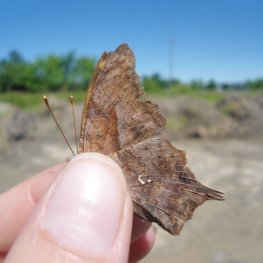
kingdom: Animalia
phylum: Arthropoda
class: Insecta
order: Lepidoptera
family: Nymphalidae
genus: Polygonia
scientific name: Polygonia interrogationis
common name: Question Mark
